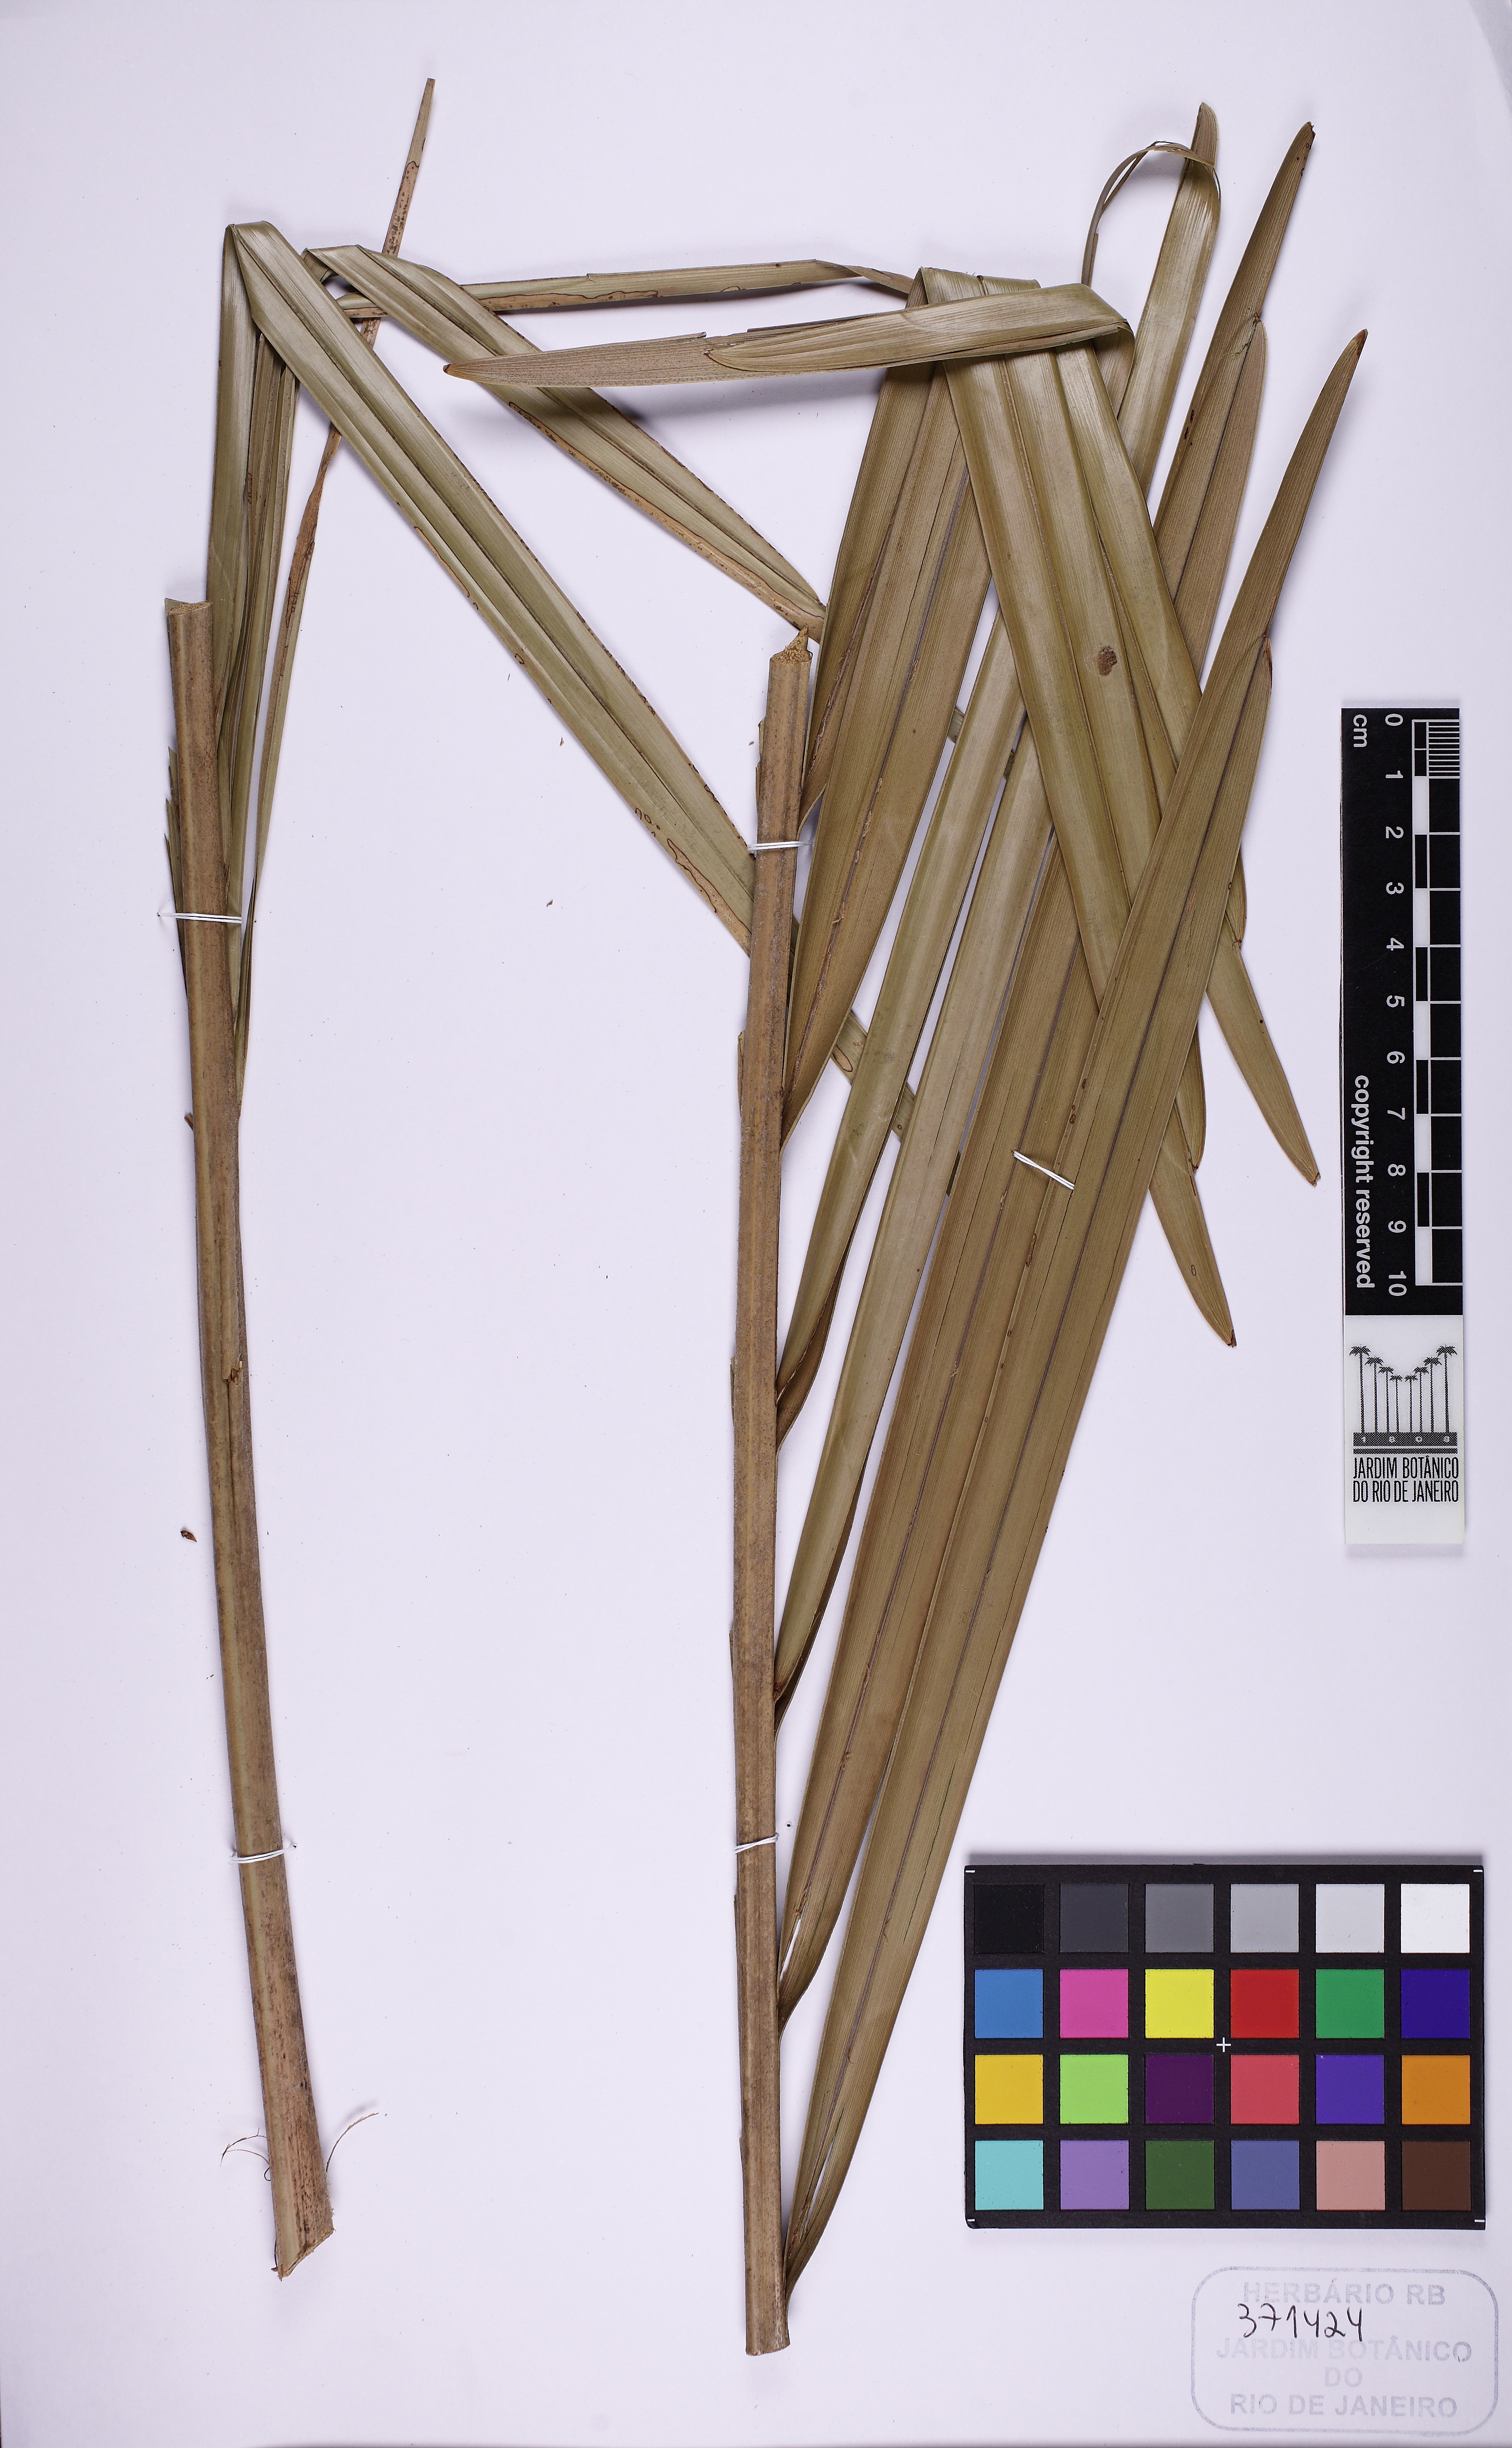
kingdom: Plantae
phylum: Tracheophyta
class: Liliopsida
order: Arecales
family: Arecaceae
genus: Syagrus
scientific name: Syagrus harleyi
